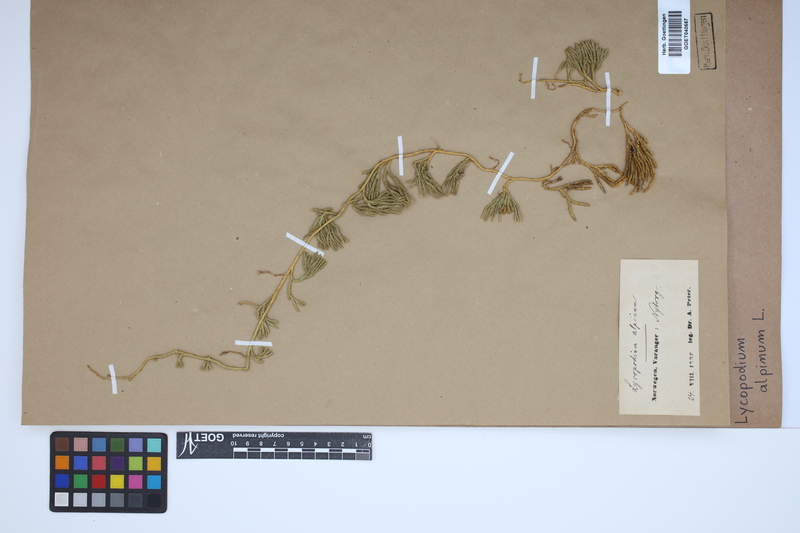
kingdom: Plantae
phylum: Tracheophyta
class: Lycopodiopsida
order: Lycopodiales
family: Lycopodiaceae
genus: Diphasiastrum
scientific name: Diphasiastrum alpinum
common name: Alpine clubmoss
